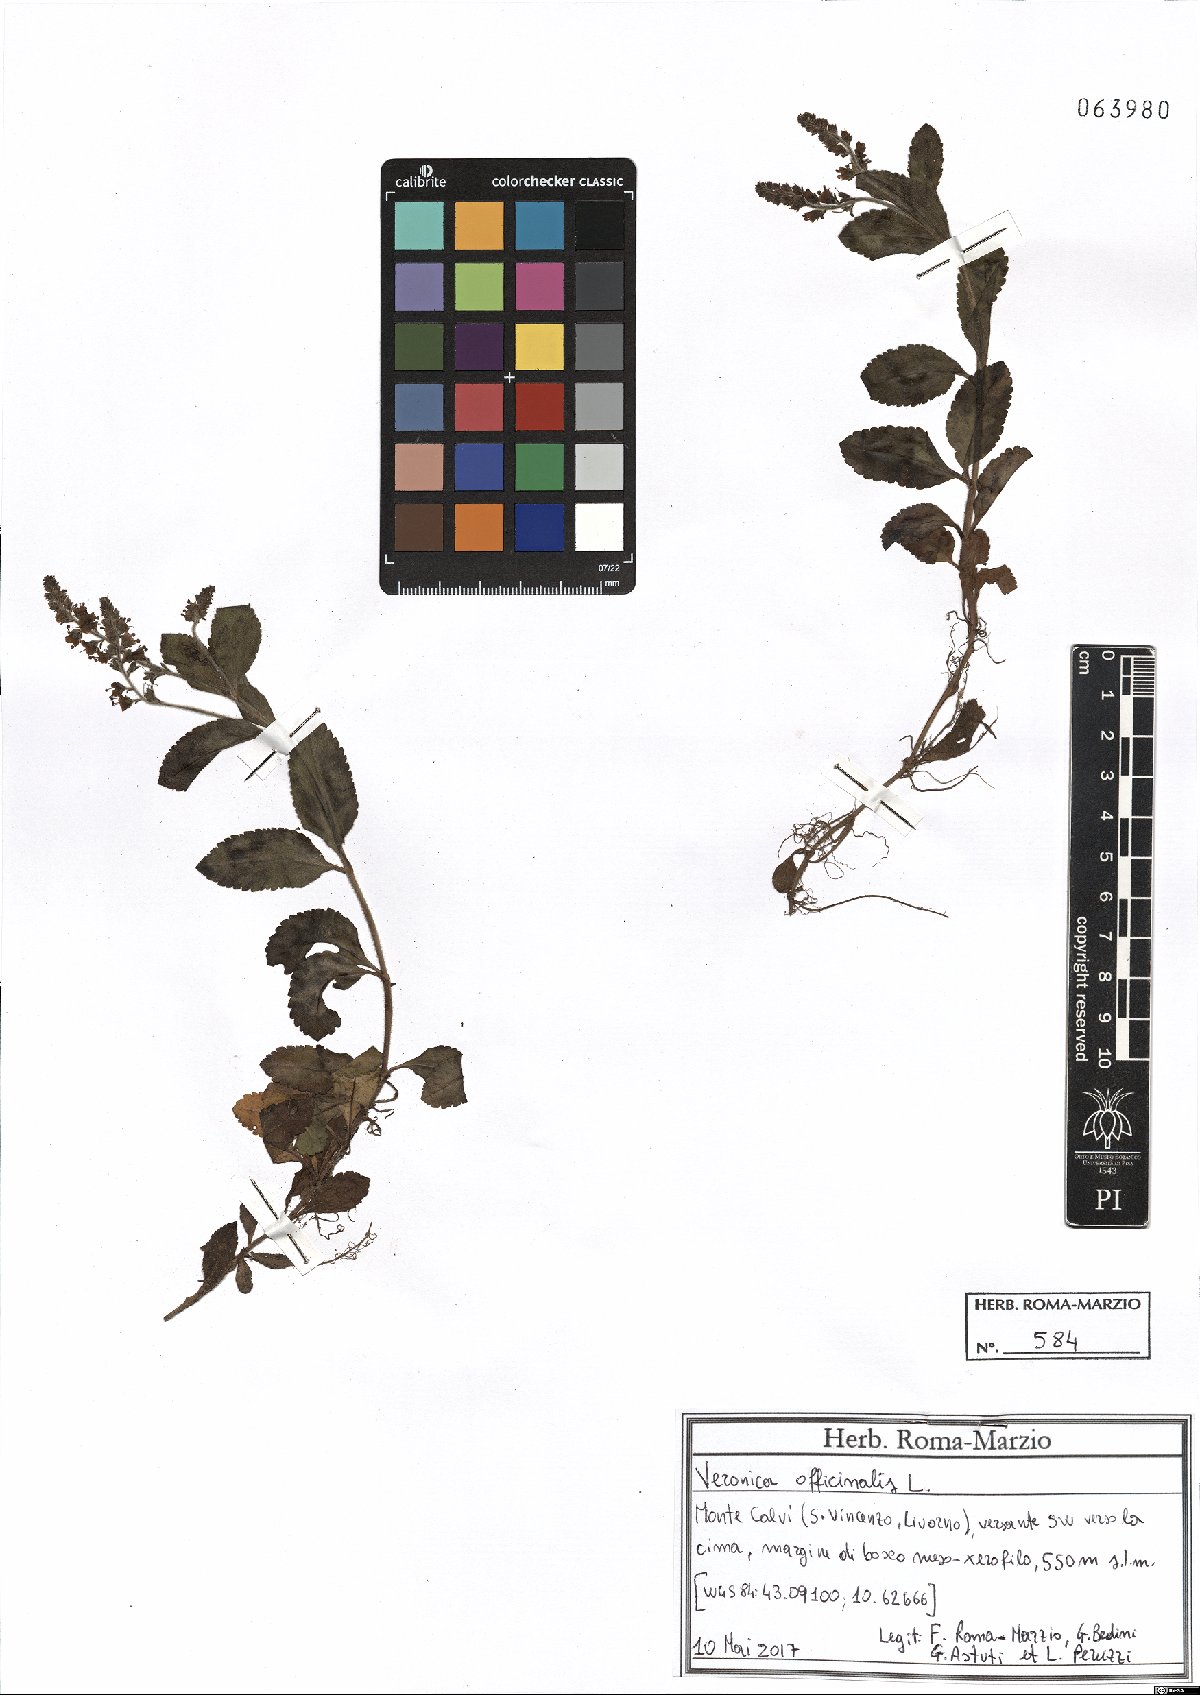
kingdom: Plantae
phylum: Tracheophyta
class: Magnoliopsida
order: Lamiales
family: Plantaginaceae
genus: Veronica
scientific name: Veronica officinalis
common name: Common speedwell
